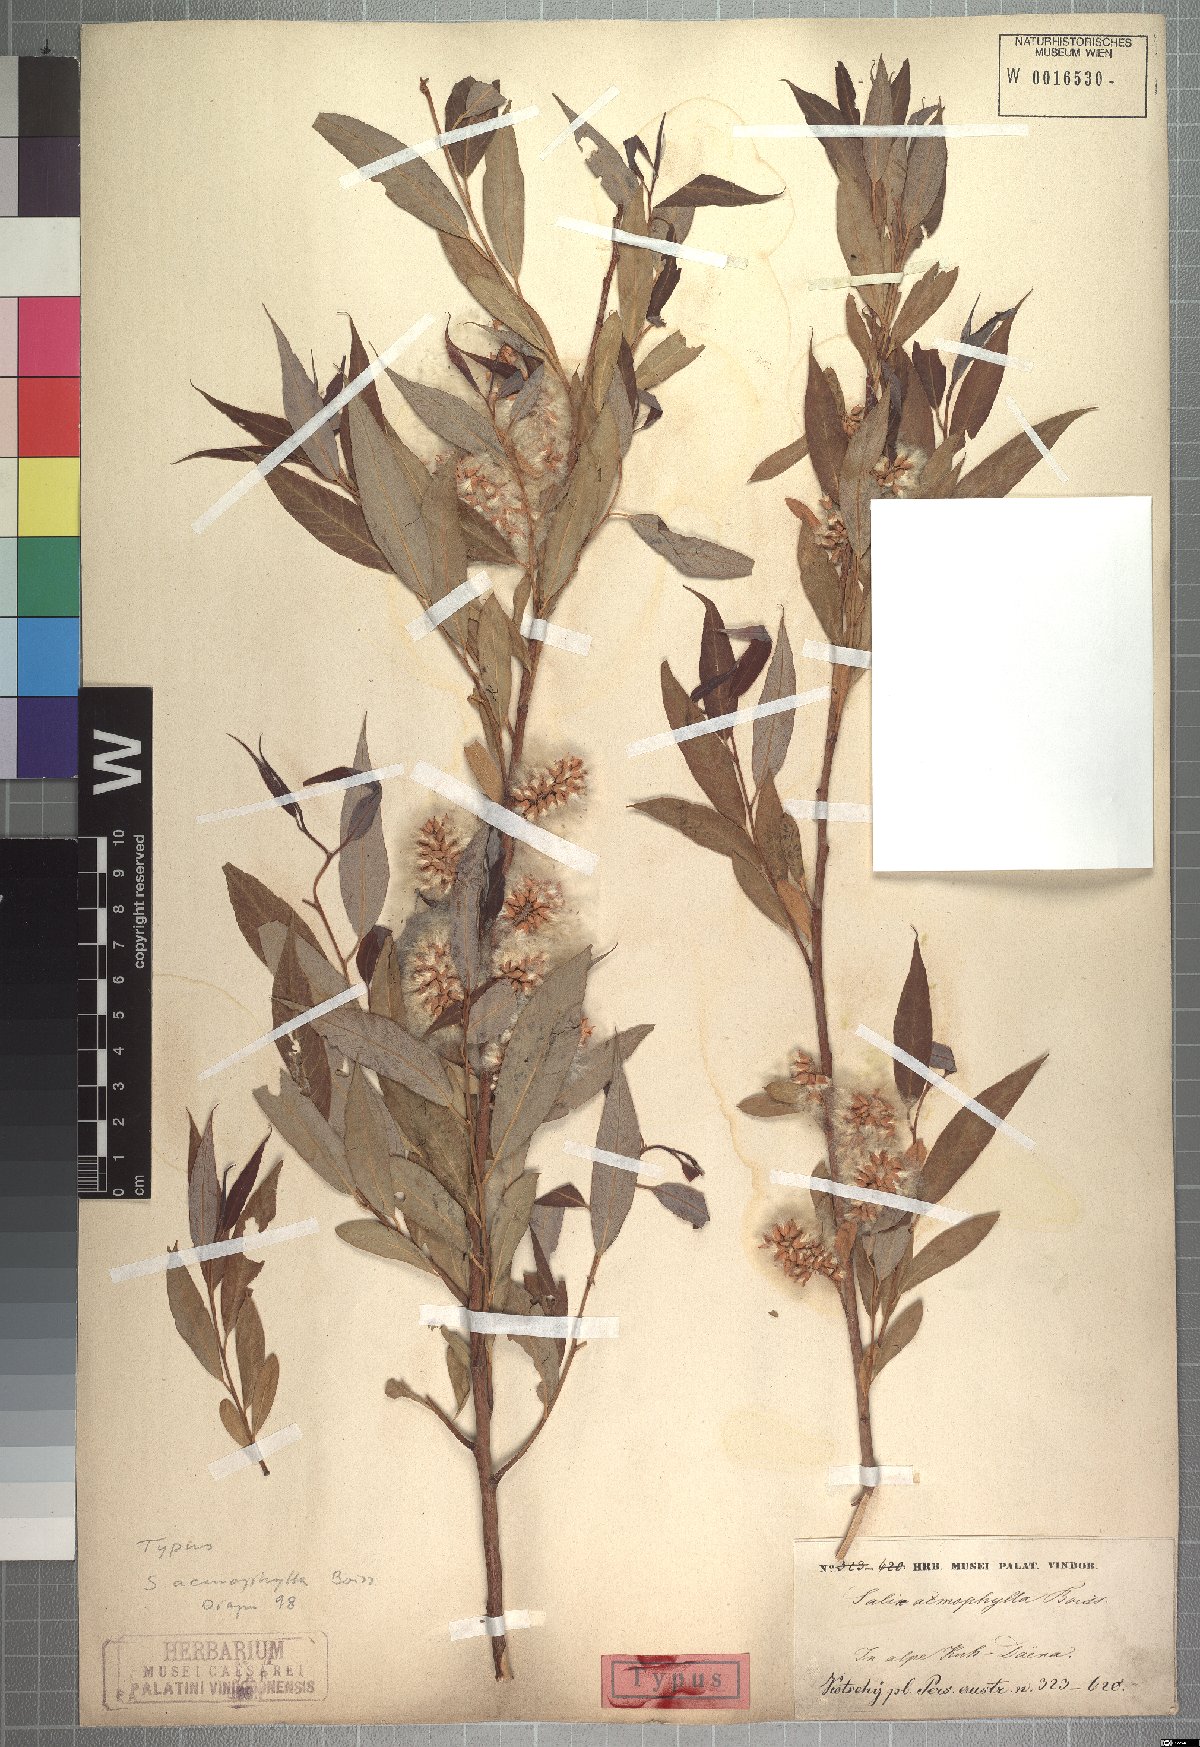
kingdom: Plantae
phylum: Tracheophyta
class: Magnoliopsida
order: Malpighiales
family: Salicaceae
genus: Salix
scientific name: Salix acmophylla
